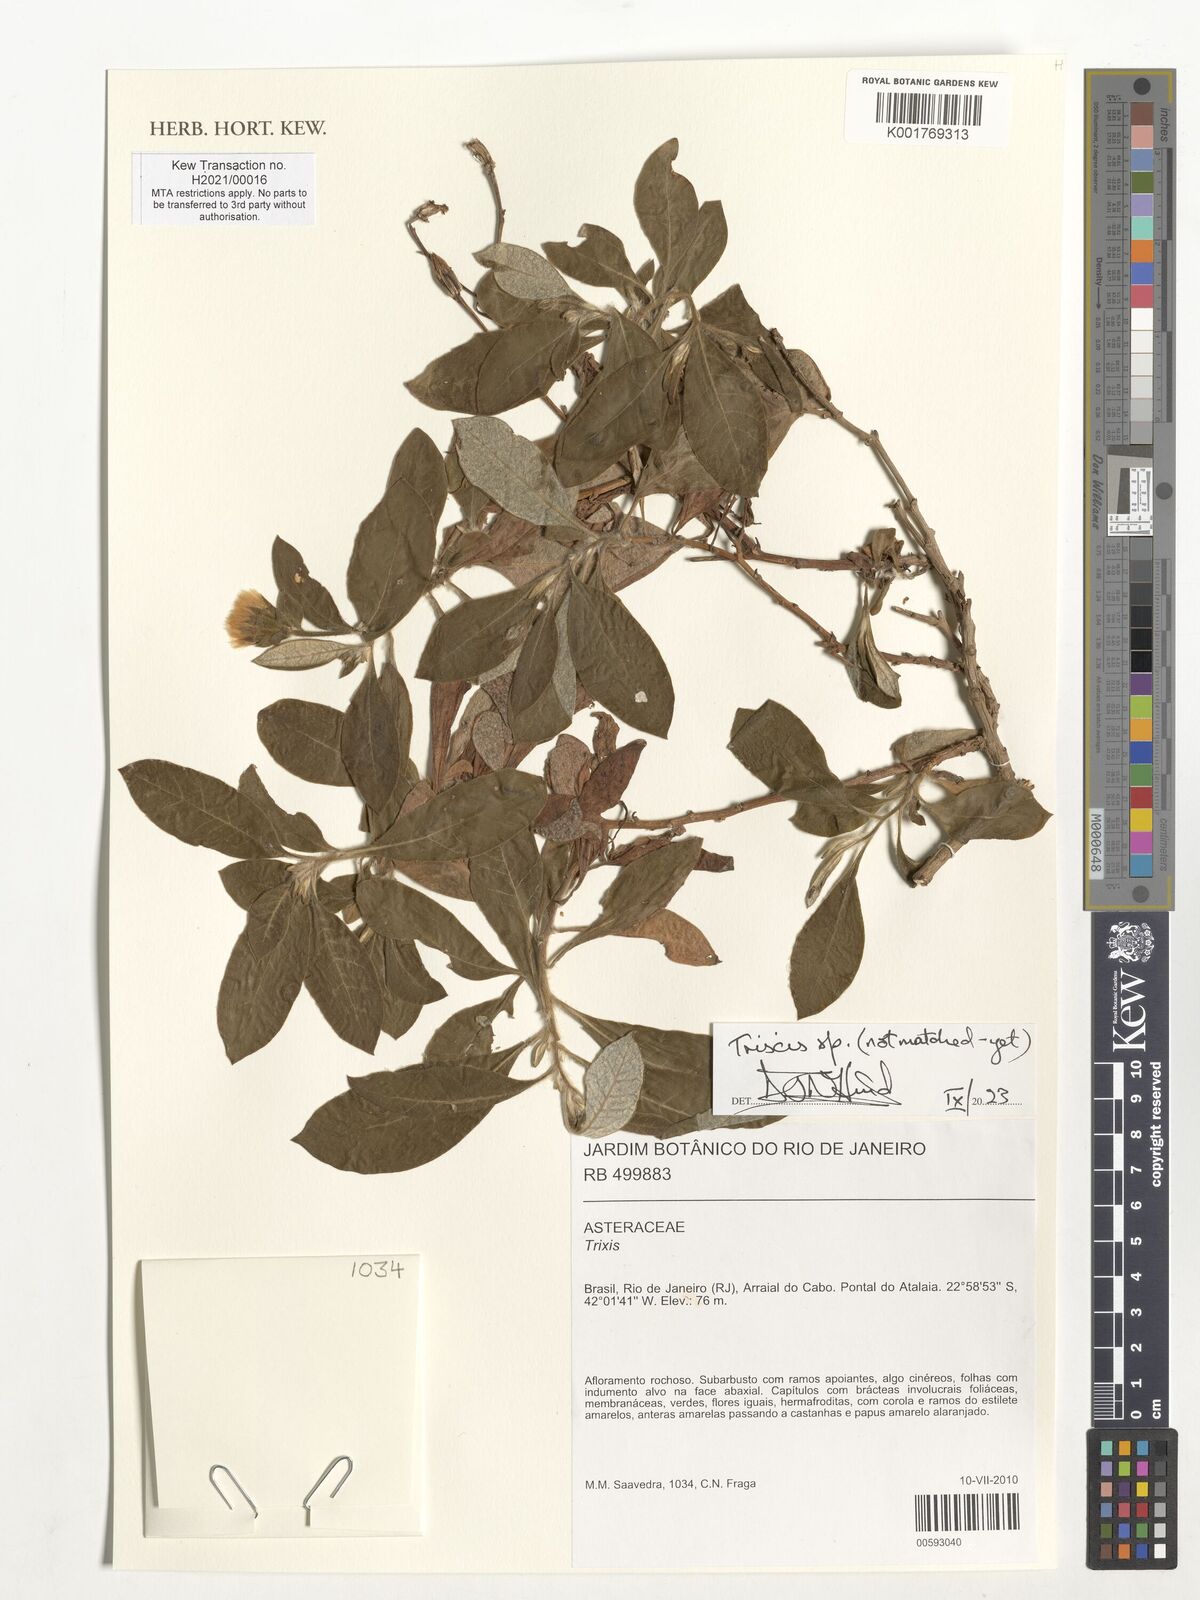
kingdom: Plantae
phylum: Tracheophyta
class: Magnoliopsida
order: Asterales
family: Asteraceae
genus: Trixis
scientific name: Trixis
